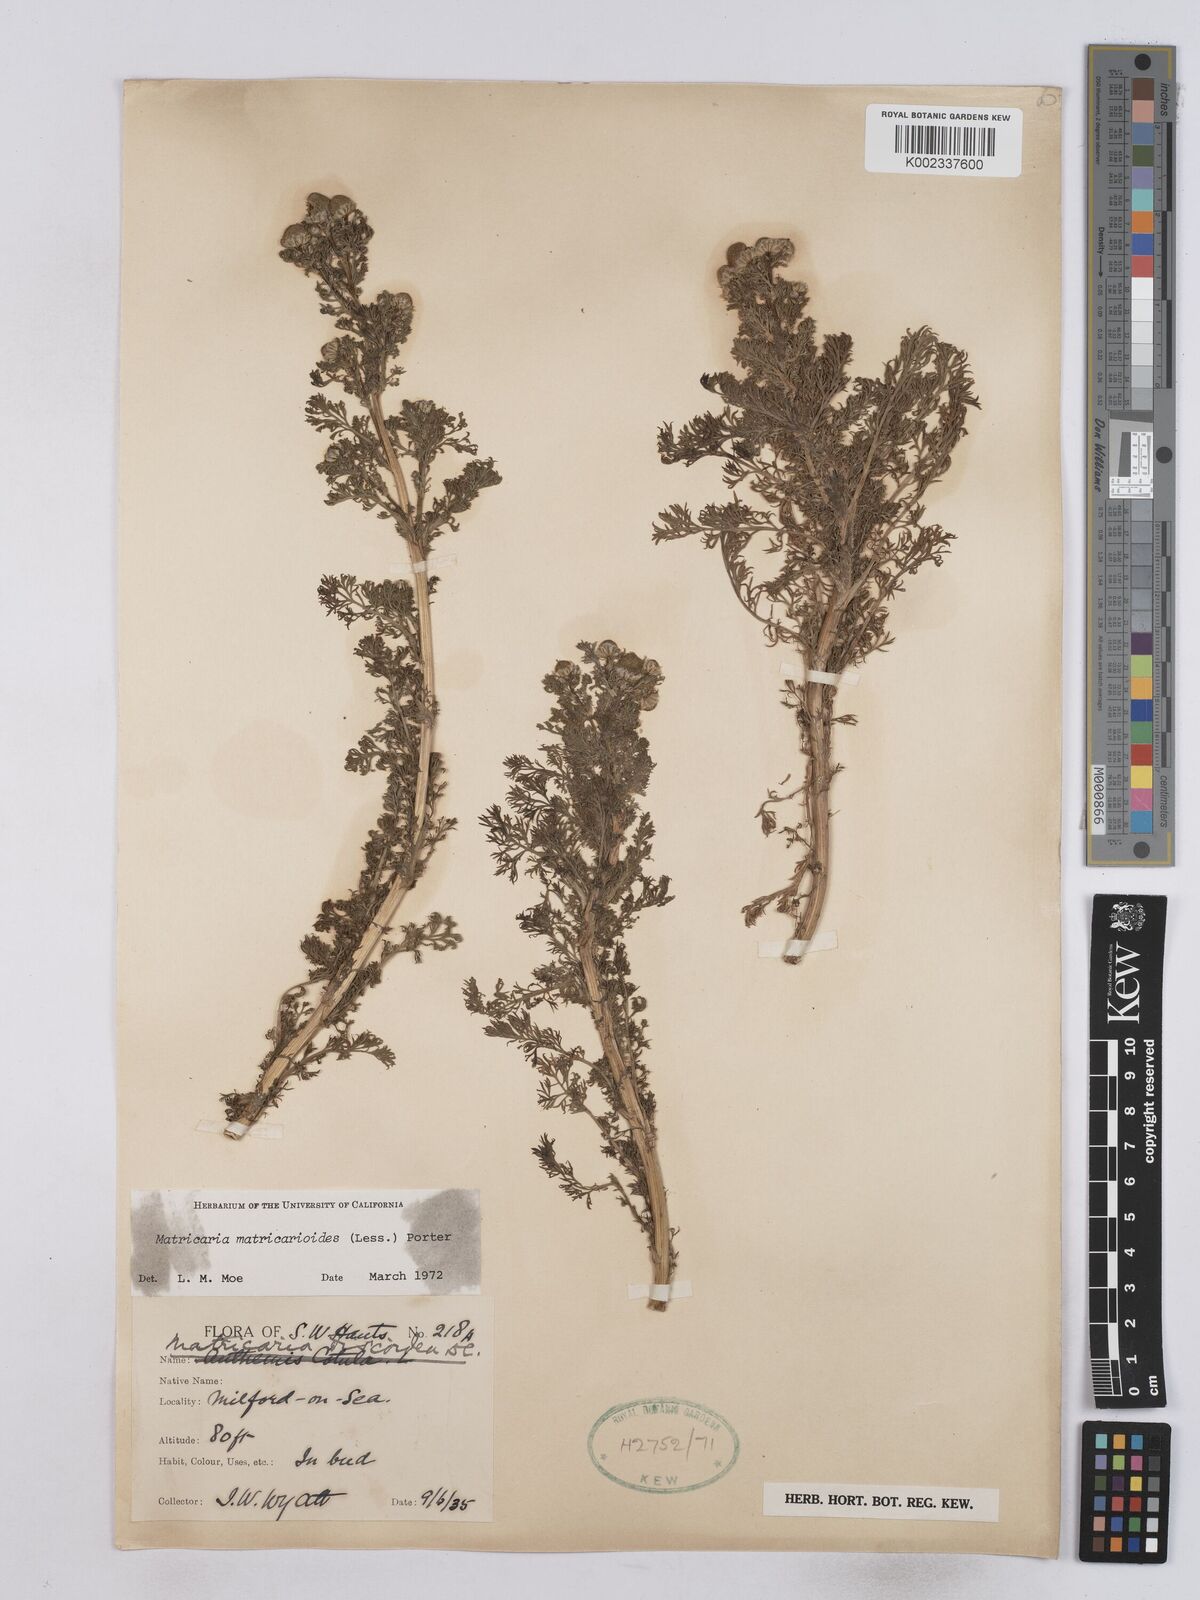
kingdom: Plantae
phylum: Tracheophyta
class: Magnoliopsida
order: Asterales
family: Asteraceae
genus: Matricaria
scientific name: Matricaria discoidea
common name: Disc mayweed
